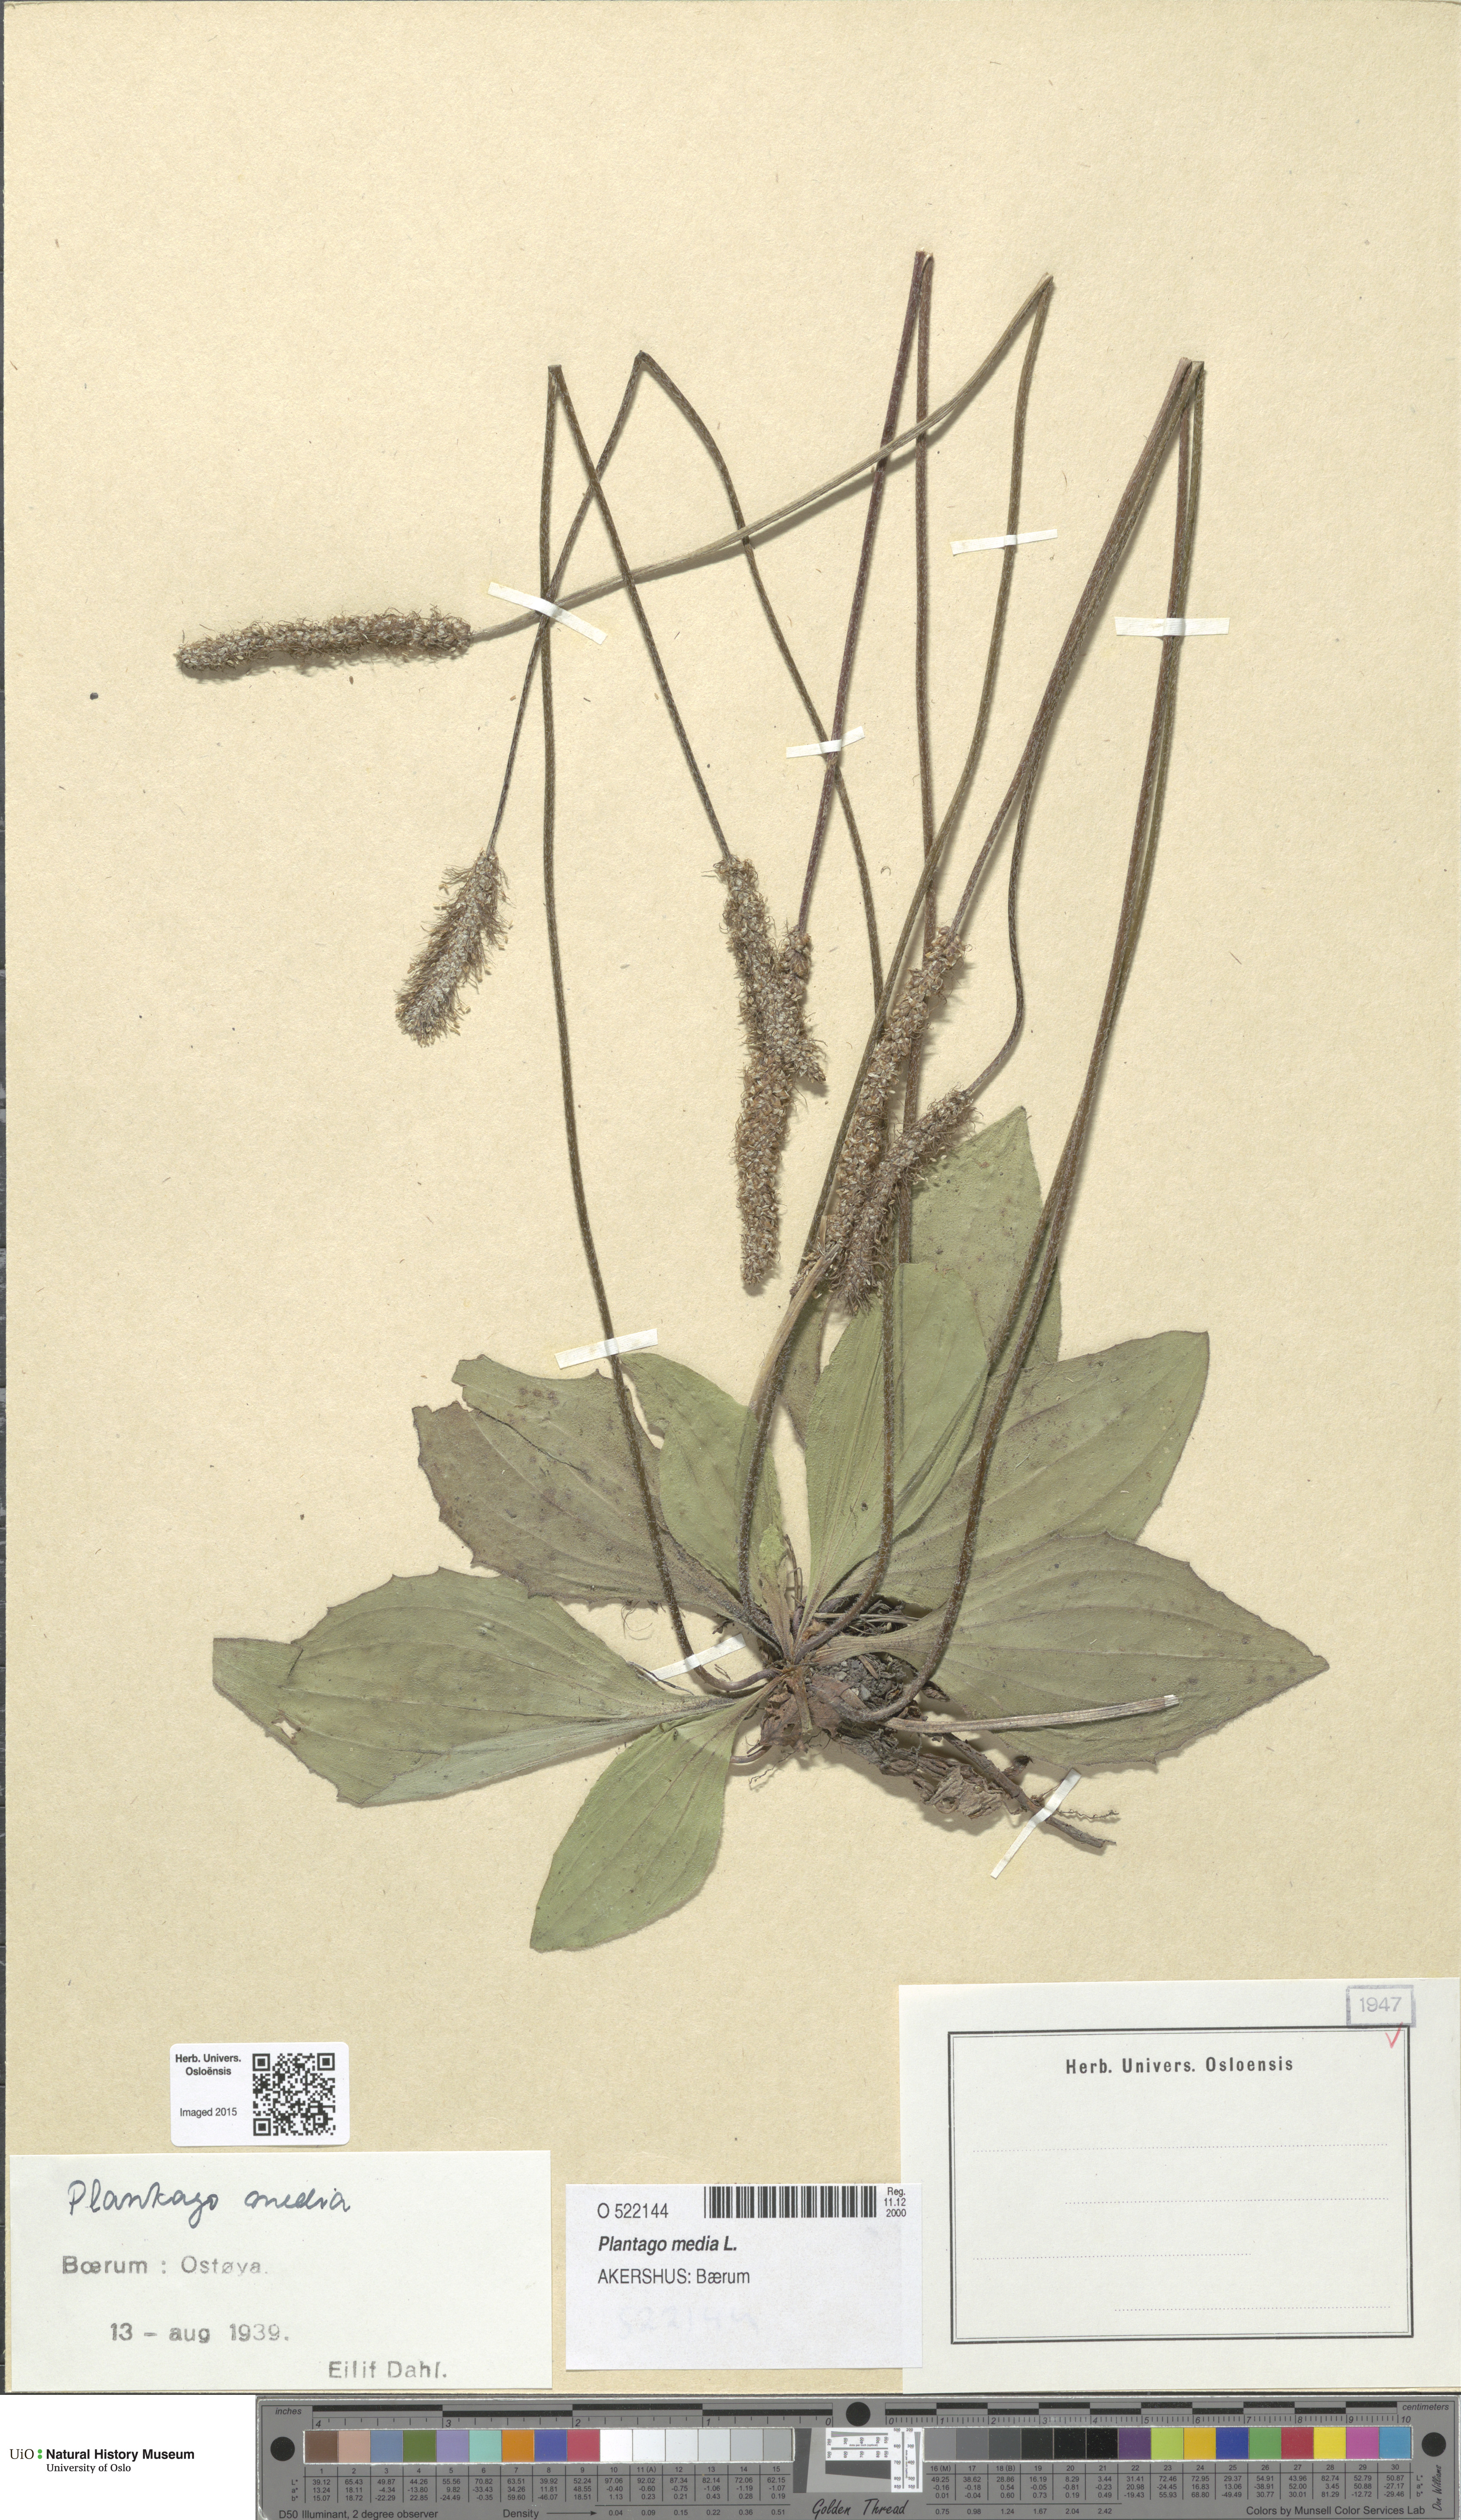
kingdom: Plantae
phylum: Tracheophyta
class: Magnoliopsida
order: Lamiales
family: Plantaginaceae
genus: Plantago
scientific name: Plantago media
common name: Hoary plantain
